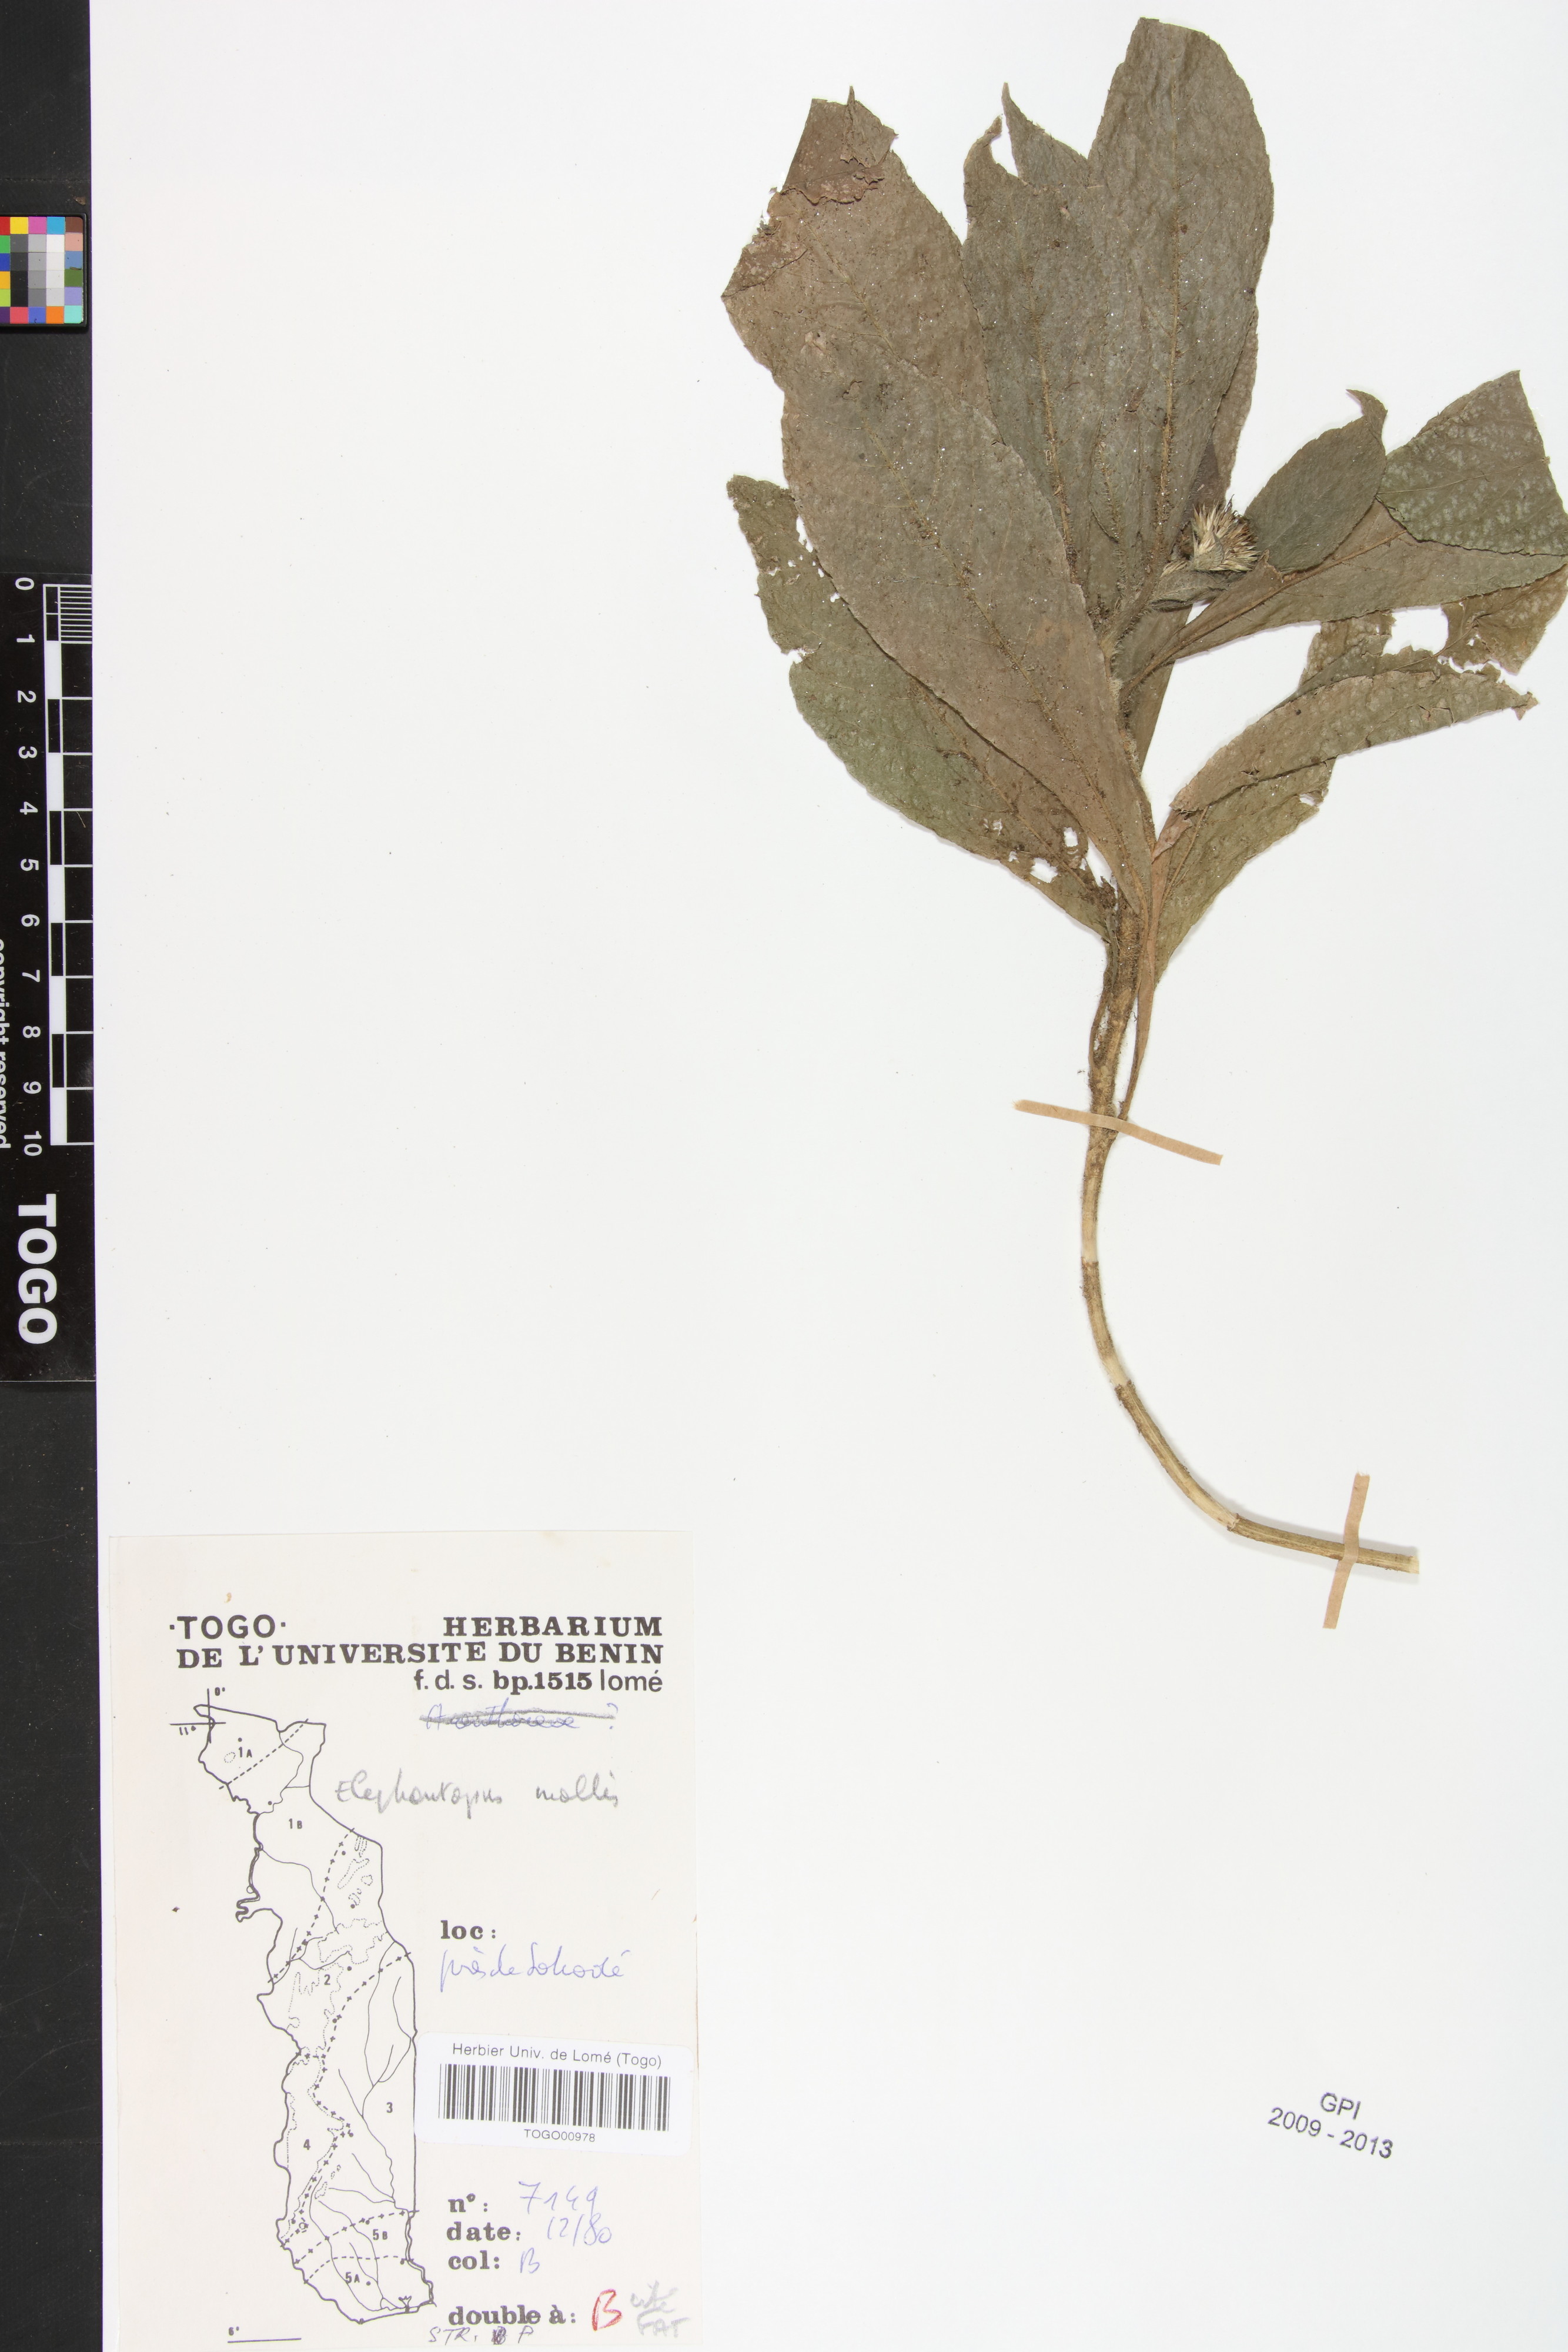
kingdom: Plantae
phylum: Tracheophyta
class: Magnoliopsida
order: Asterales
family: Asteraceae
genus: Elephantopus
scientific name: Elephantopus mollis
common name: Soft elephantsfoot
